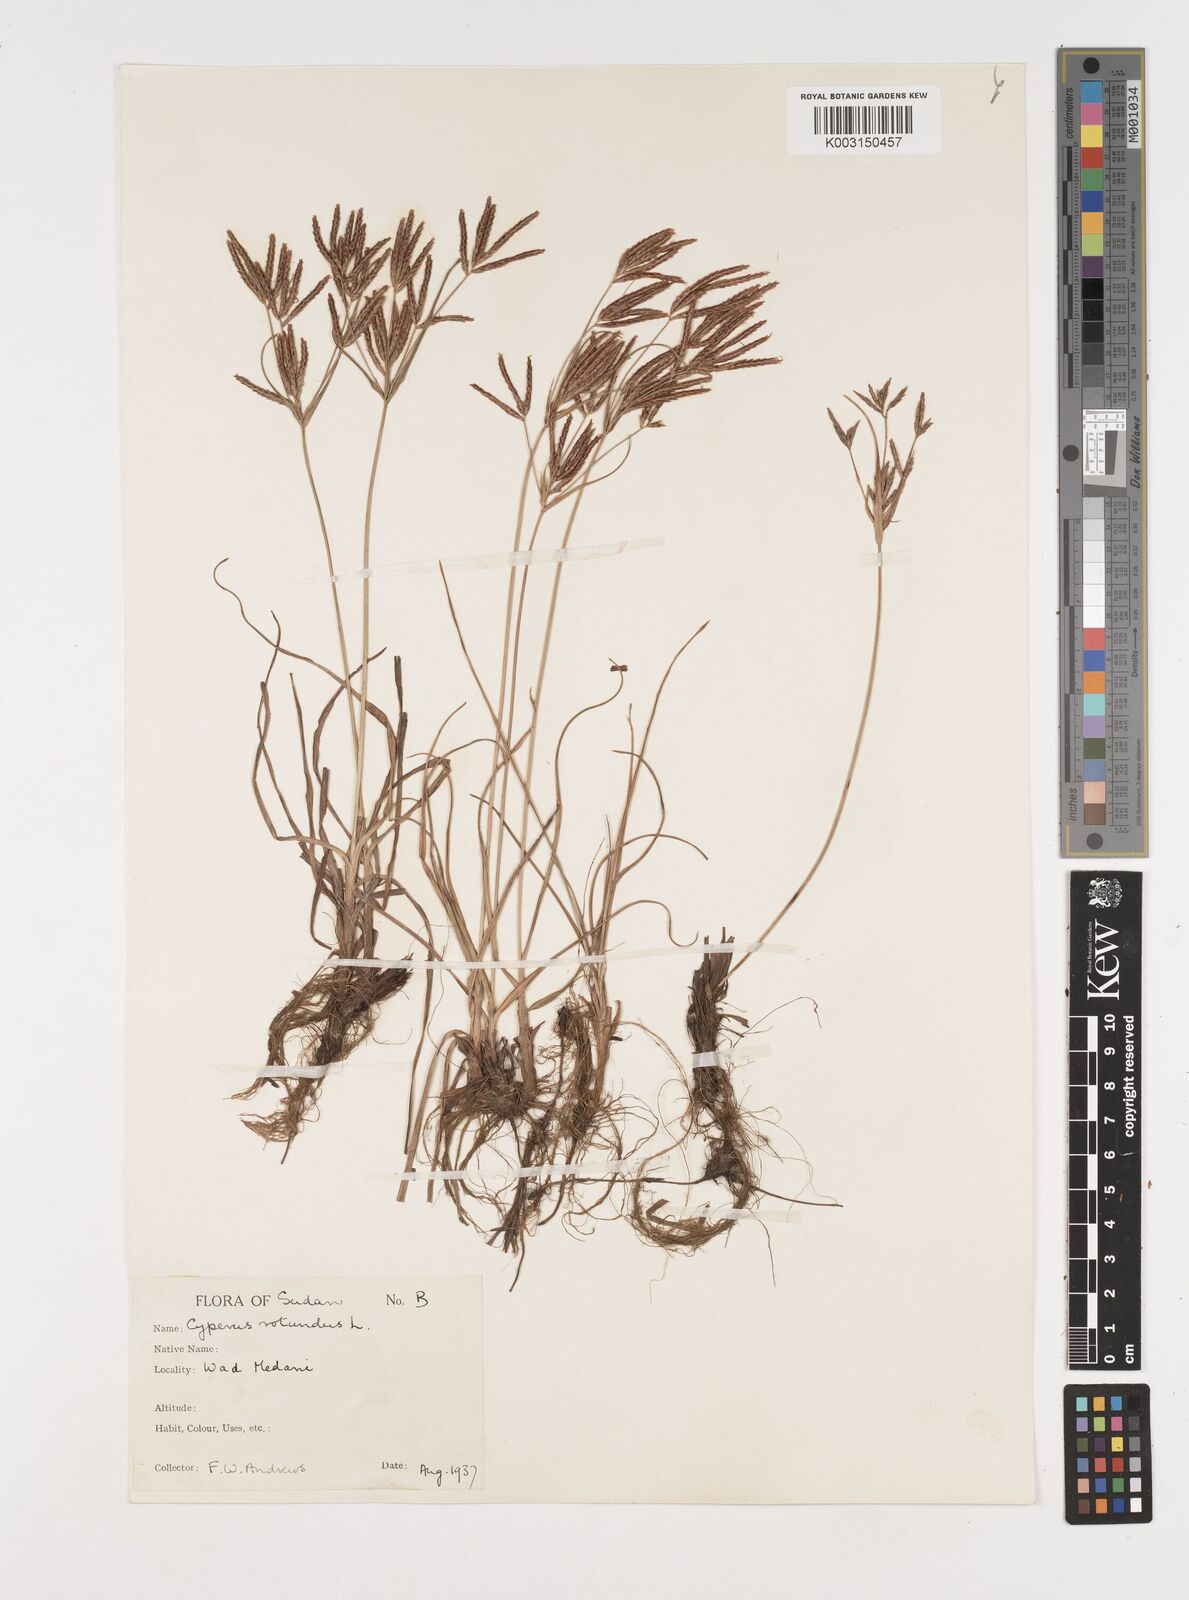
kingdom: Plantae
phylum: Tracheophyta
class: Liliopsida
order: Poales
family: Cyperaceae
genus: Cyperus
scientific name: Cyperus rotundus
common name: Nutgrass
